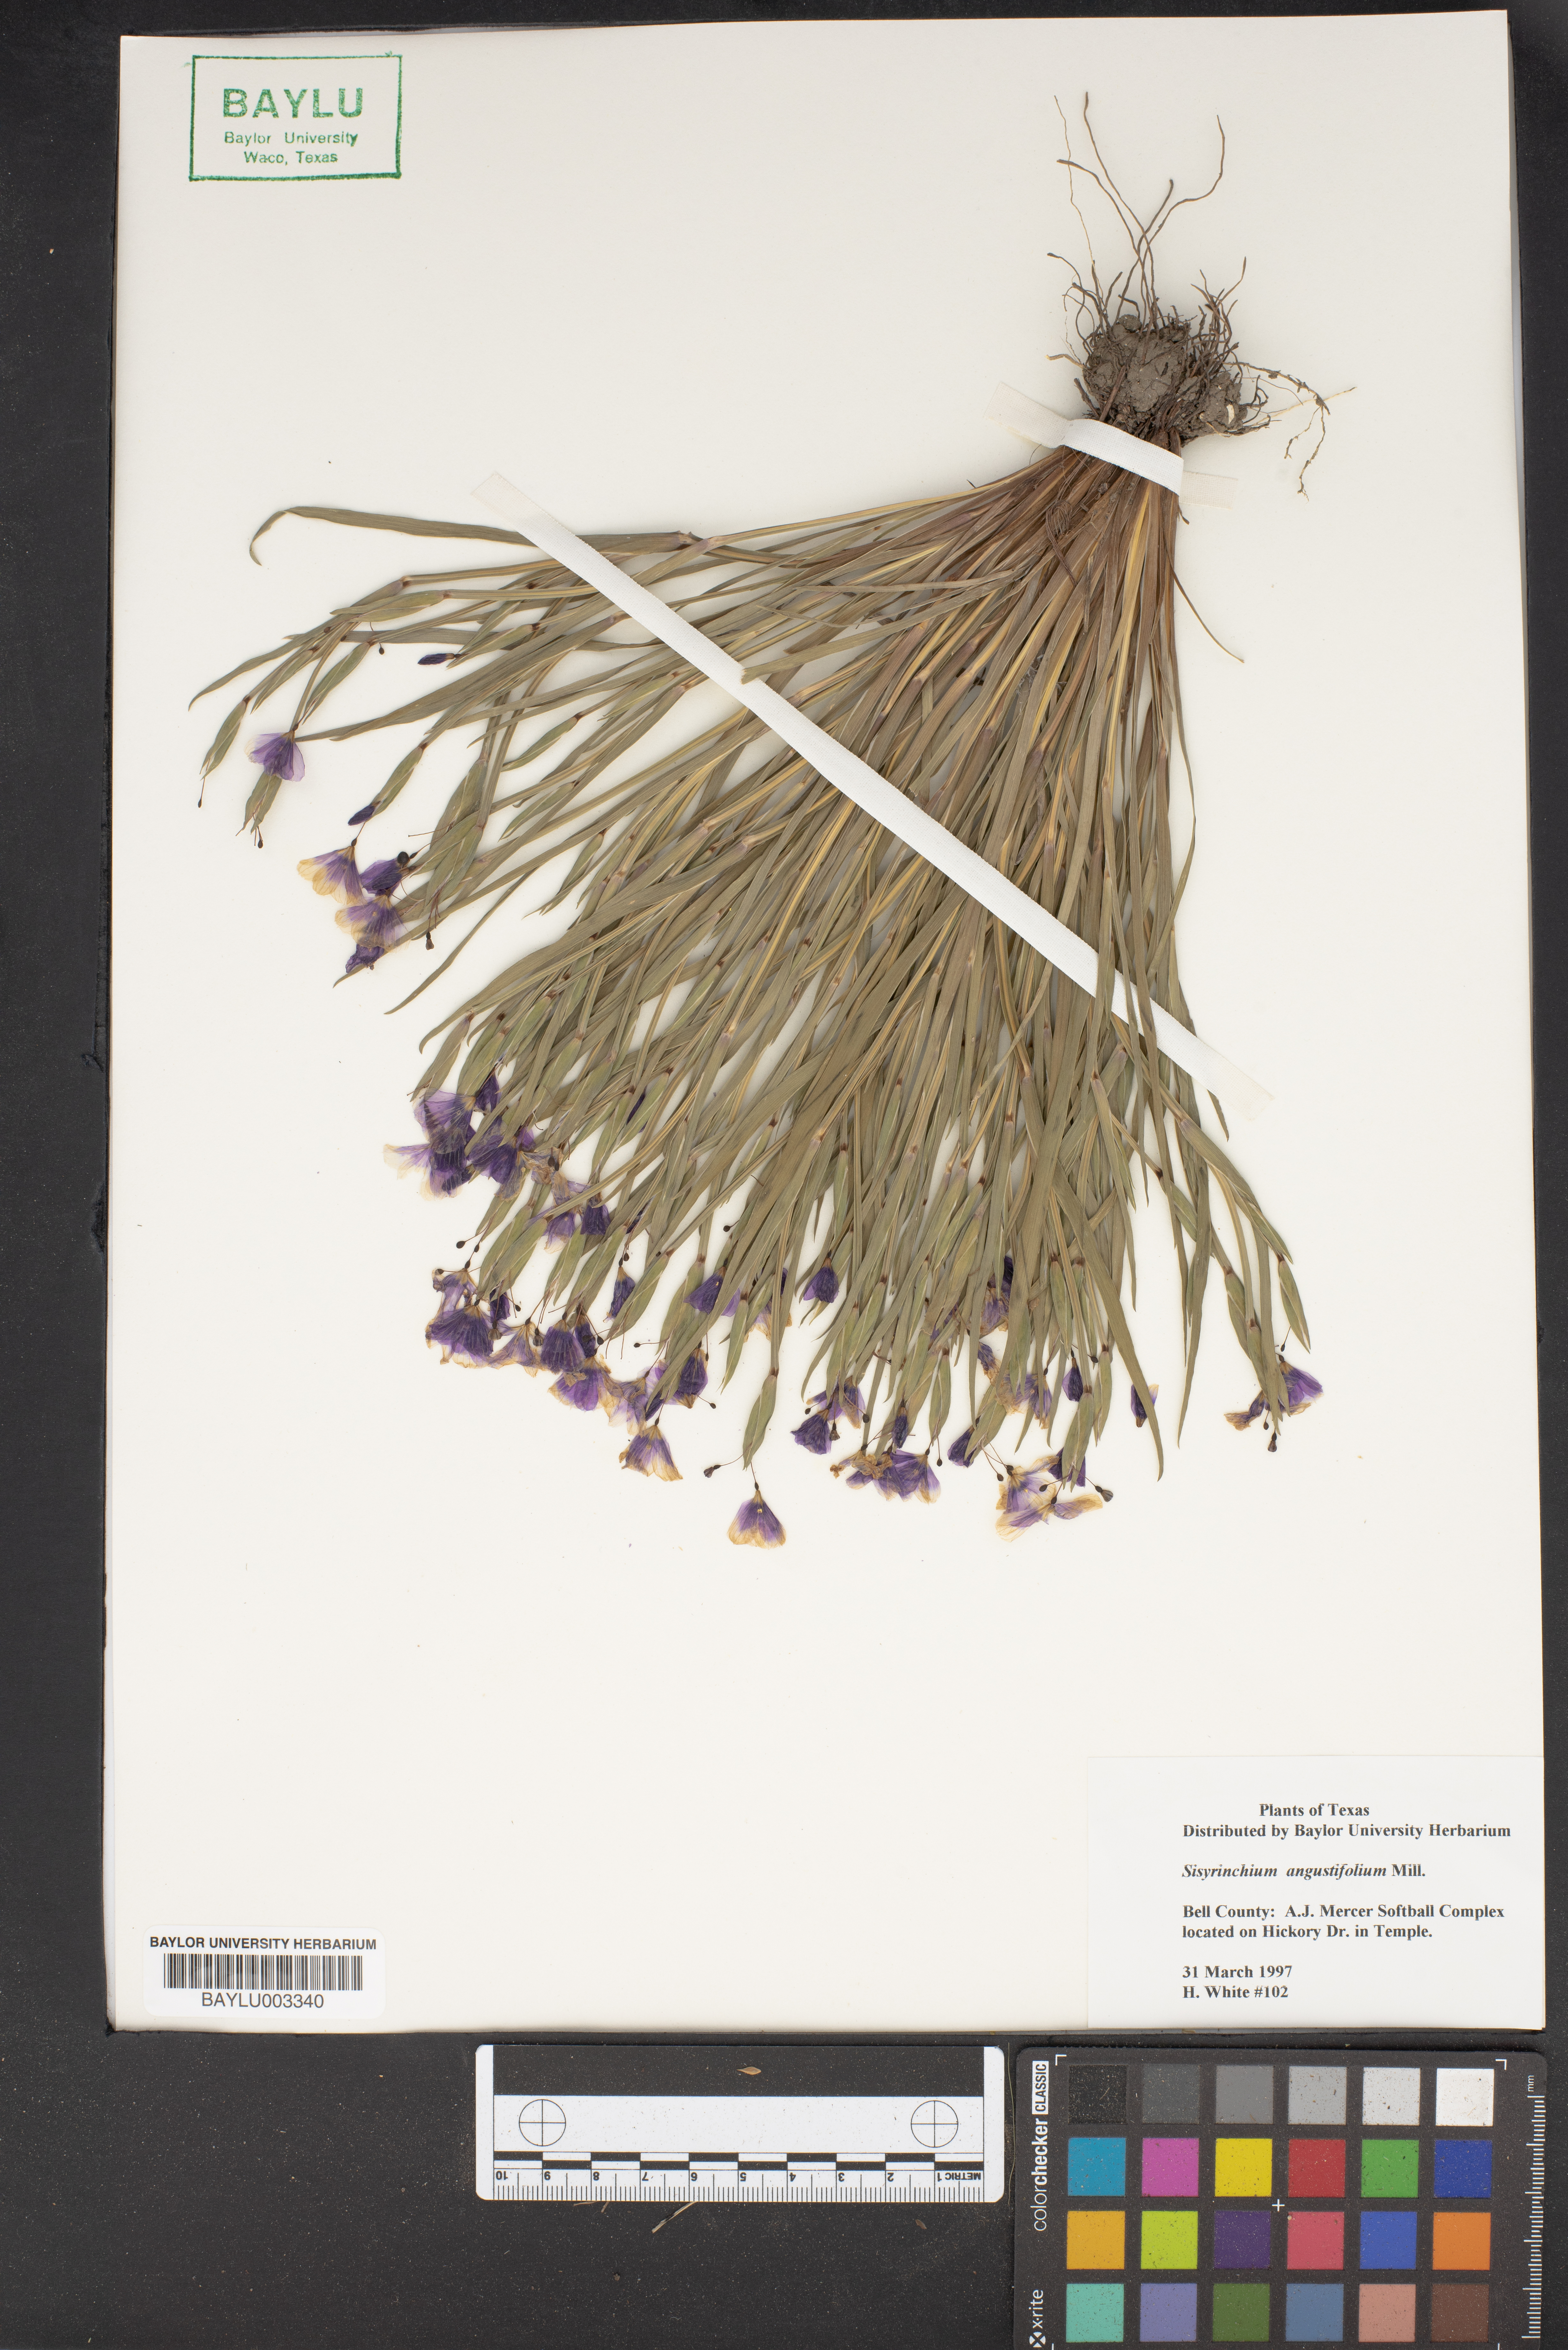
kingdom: Plantae
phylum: Tracheophyta
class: Liliopsida
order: Asparagales
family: Iridaceae
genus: Sisyrinchium
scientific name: Sisyrinchium angustifolium
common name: Narrow-leaf blue-eyed-grass
